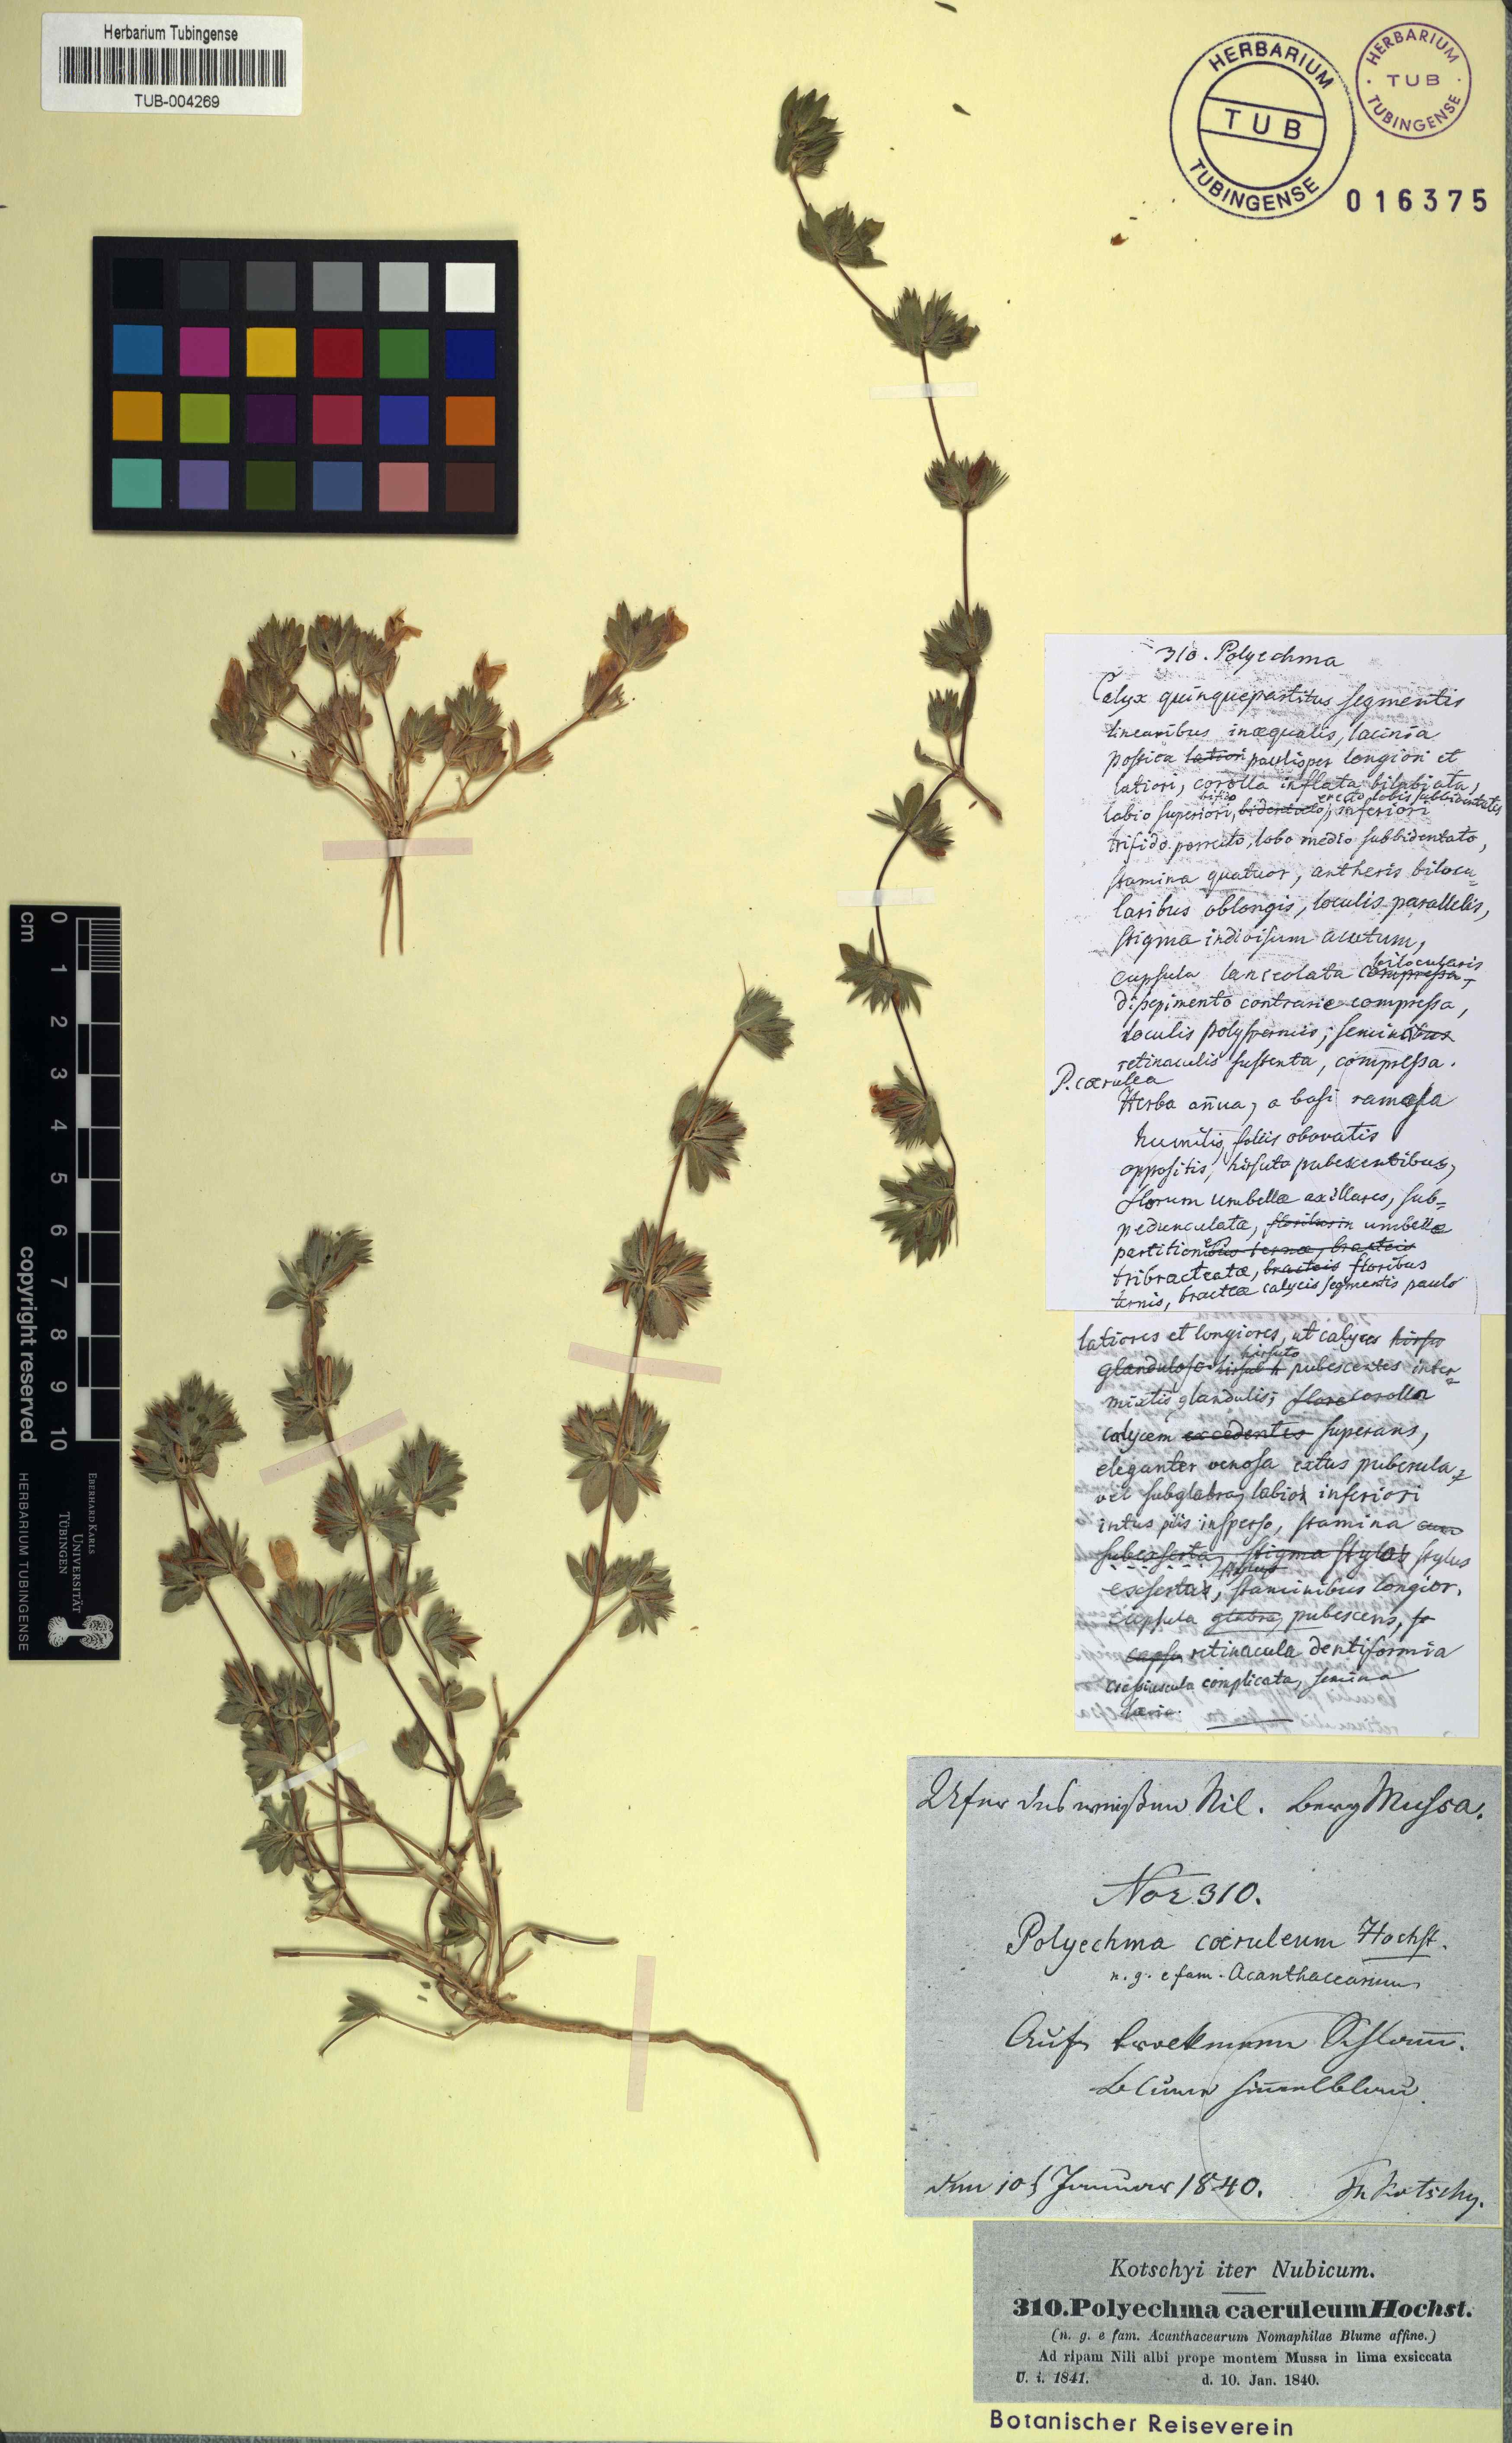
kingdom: Plantae
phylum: Tracheophyta
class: Magnoliopsida
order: Lamiales
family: Acanthaceae
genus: Hygrophila
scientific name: Hygrophila caerulea
